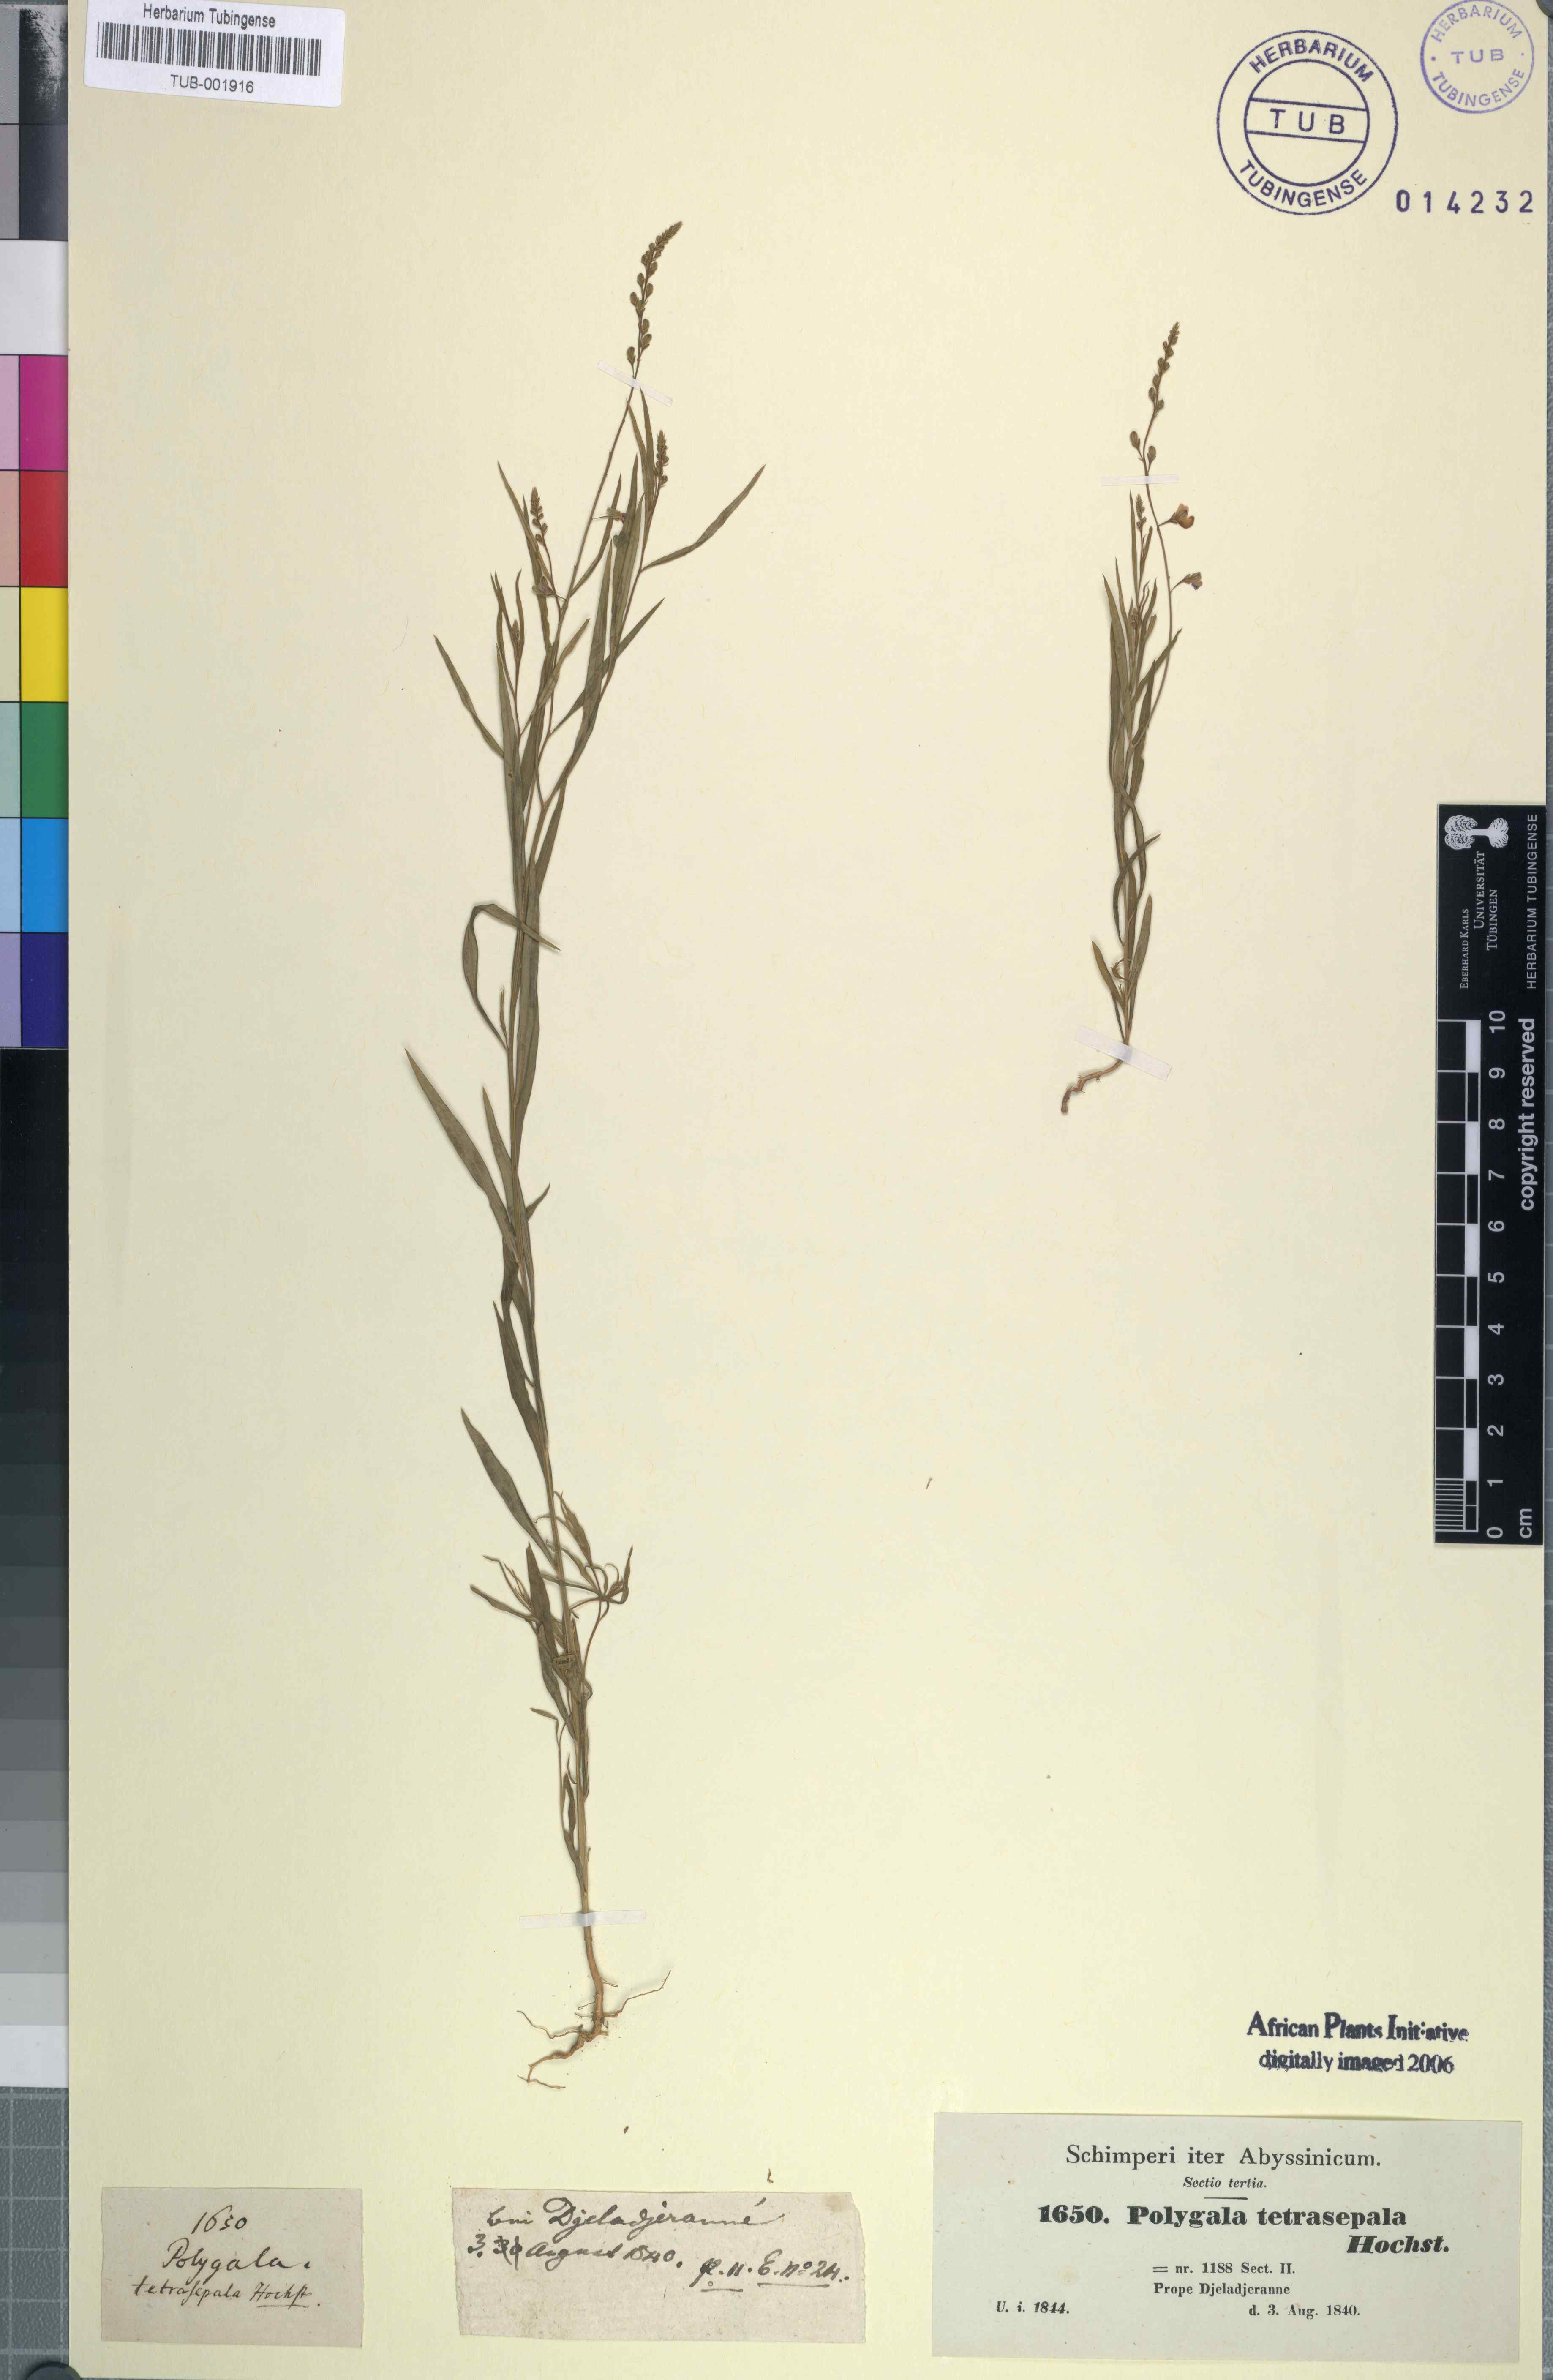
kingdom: Plantae
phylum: Tracheophyta
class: Magnoliopsida
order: Fabales
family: Polygalaceae
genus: Polygala
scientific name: Polygala petitiana
